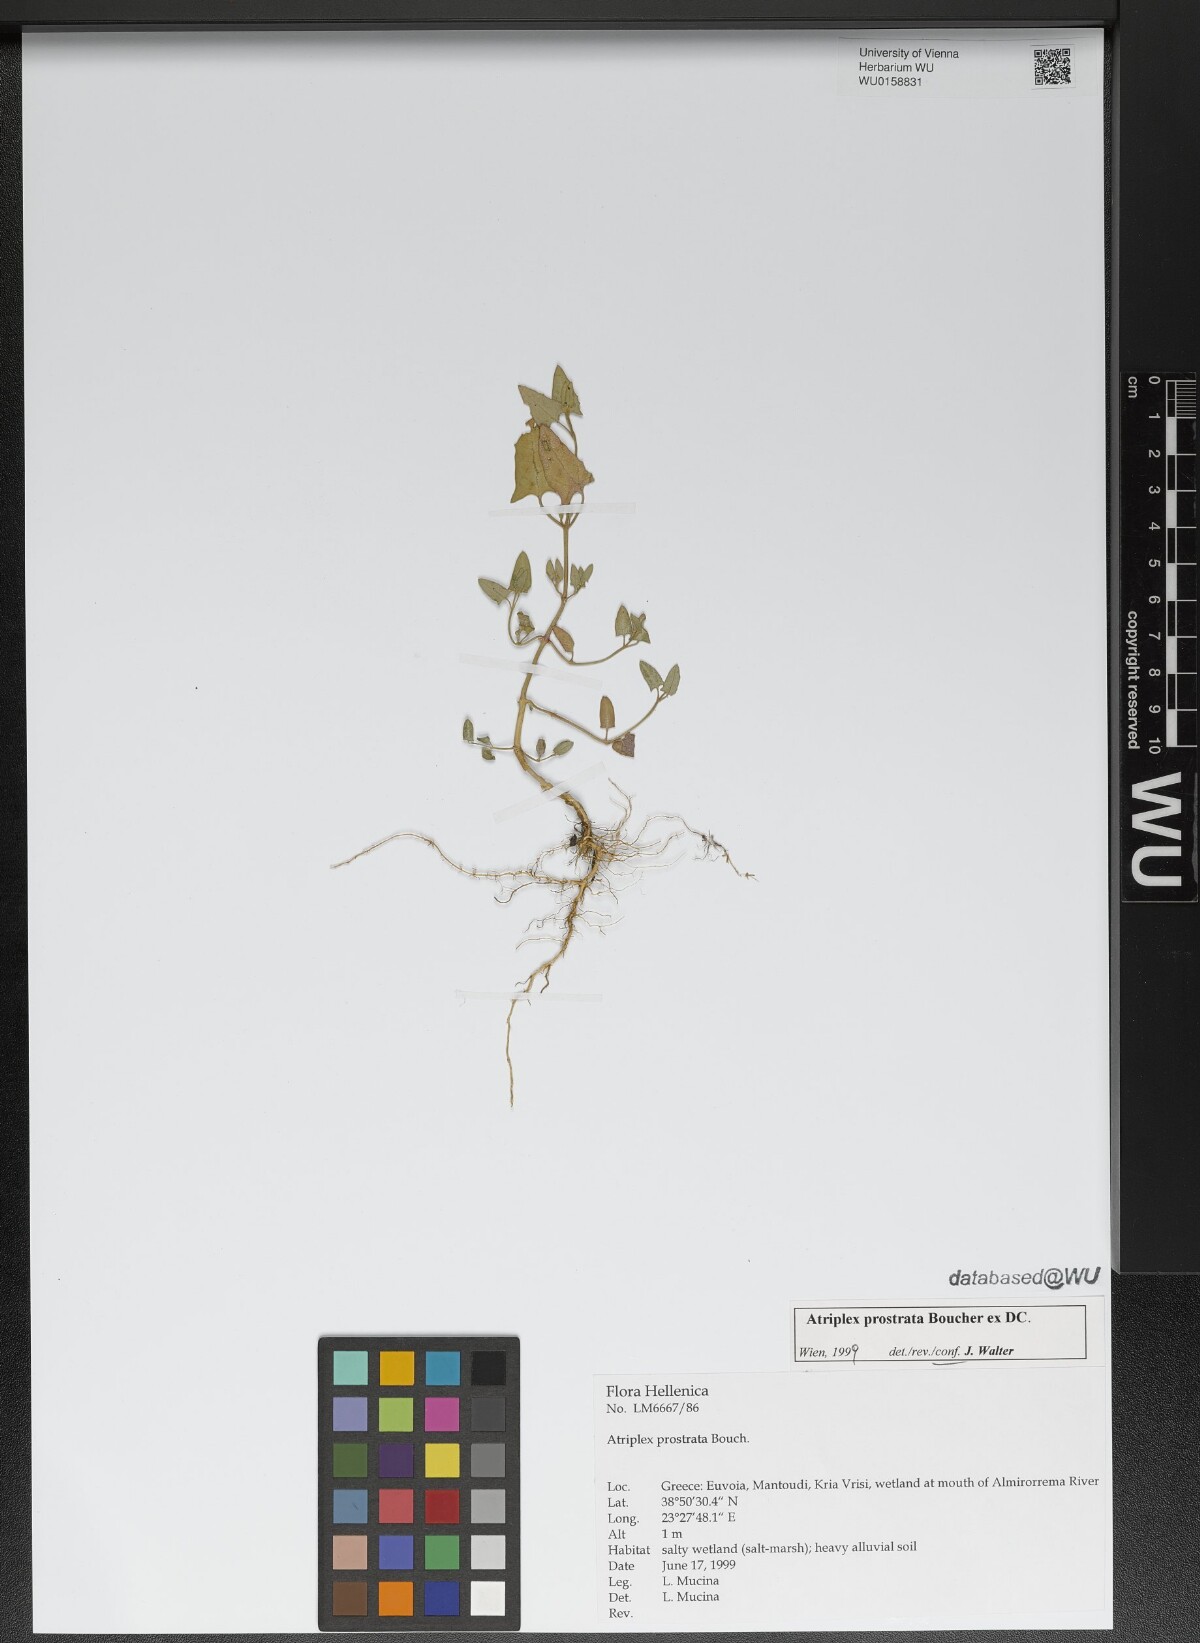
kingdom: Plantae
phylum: Tracheophyta
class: Magnoliopsida
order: Caryophyllales
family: Amaranthaceae
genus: Atriplex
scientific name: Atriplex prostrata
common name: Spear-leaved orache
